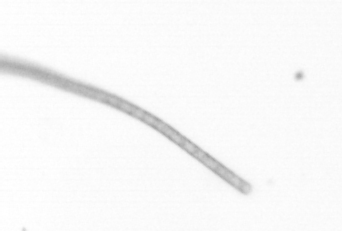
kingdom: Chromista
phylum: Ochrophyta
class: Bacillariophyceae
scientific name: Bacillariophyceae
